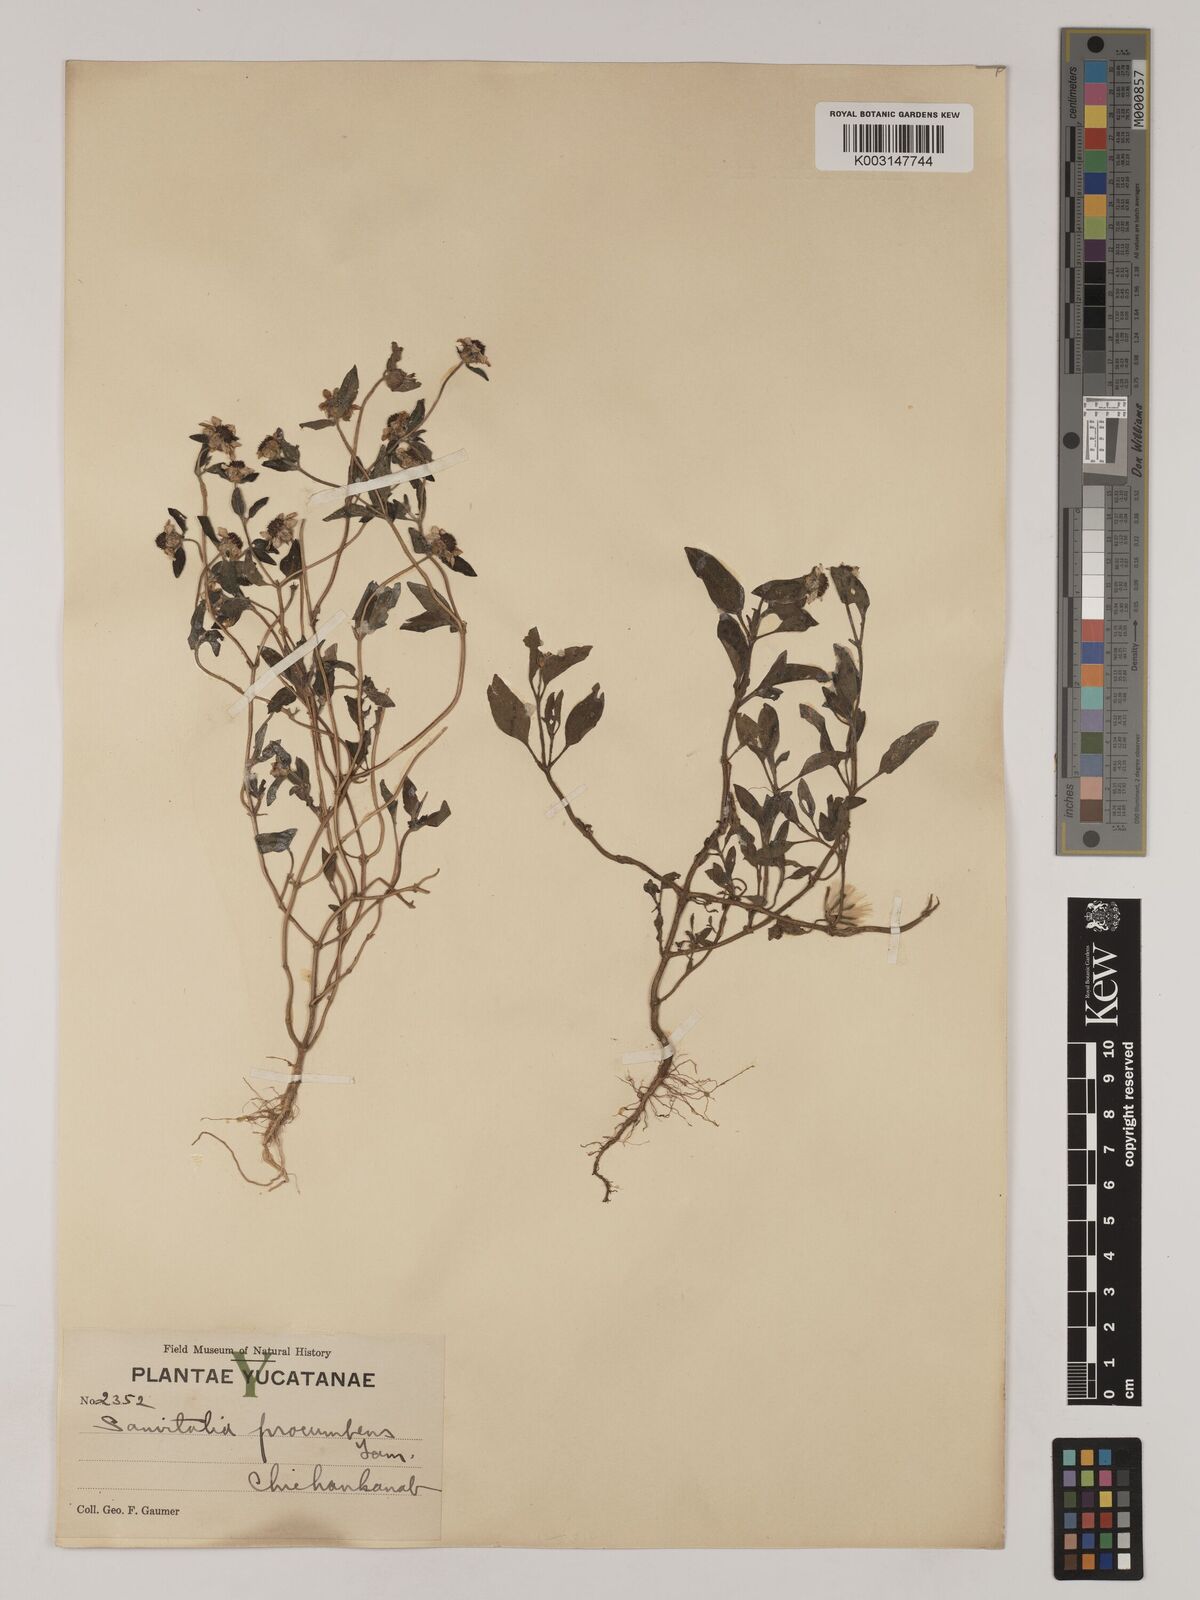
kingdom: Plantae
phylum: Tracheophyta
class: Magnoliopsida
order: Asterales
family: Asteraceae
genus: Sanvitalia
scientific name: Sanvitalia procumbens
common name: Mexican creeping zinnia
